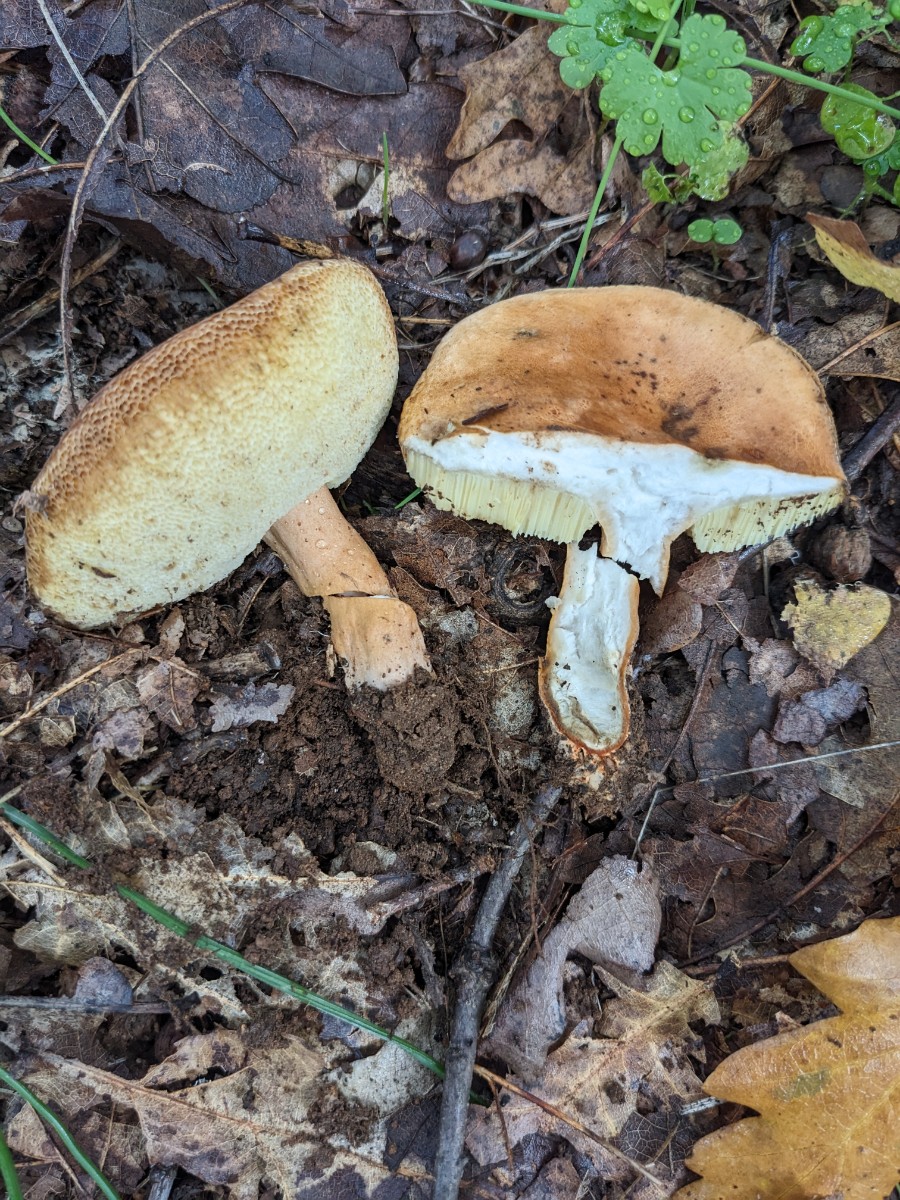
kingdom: Fungi
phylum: Basidiomycota
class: Agaricomycetes
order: Boletales
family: Gyroporaceae
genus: Gyroporus
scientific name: Gyroporus castaneus
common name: kastanie-kammerrørhat
